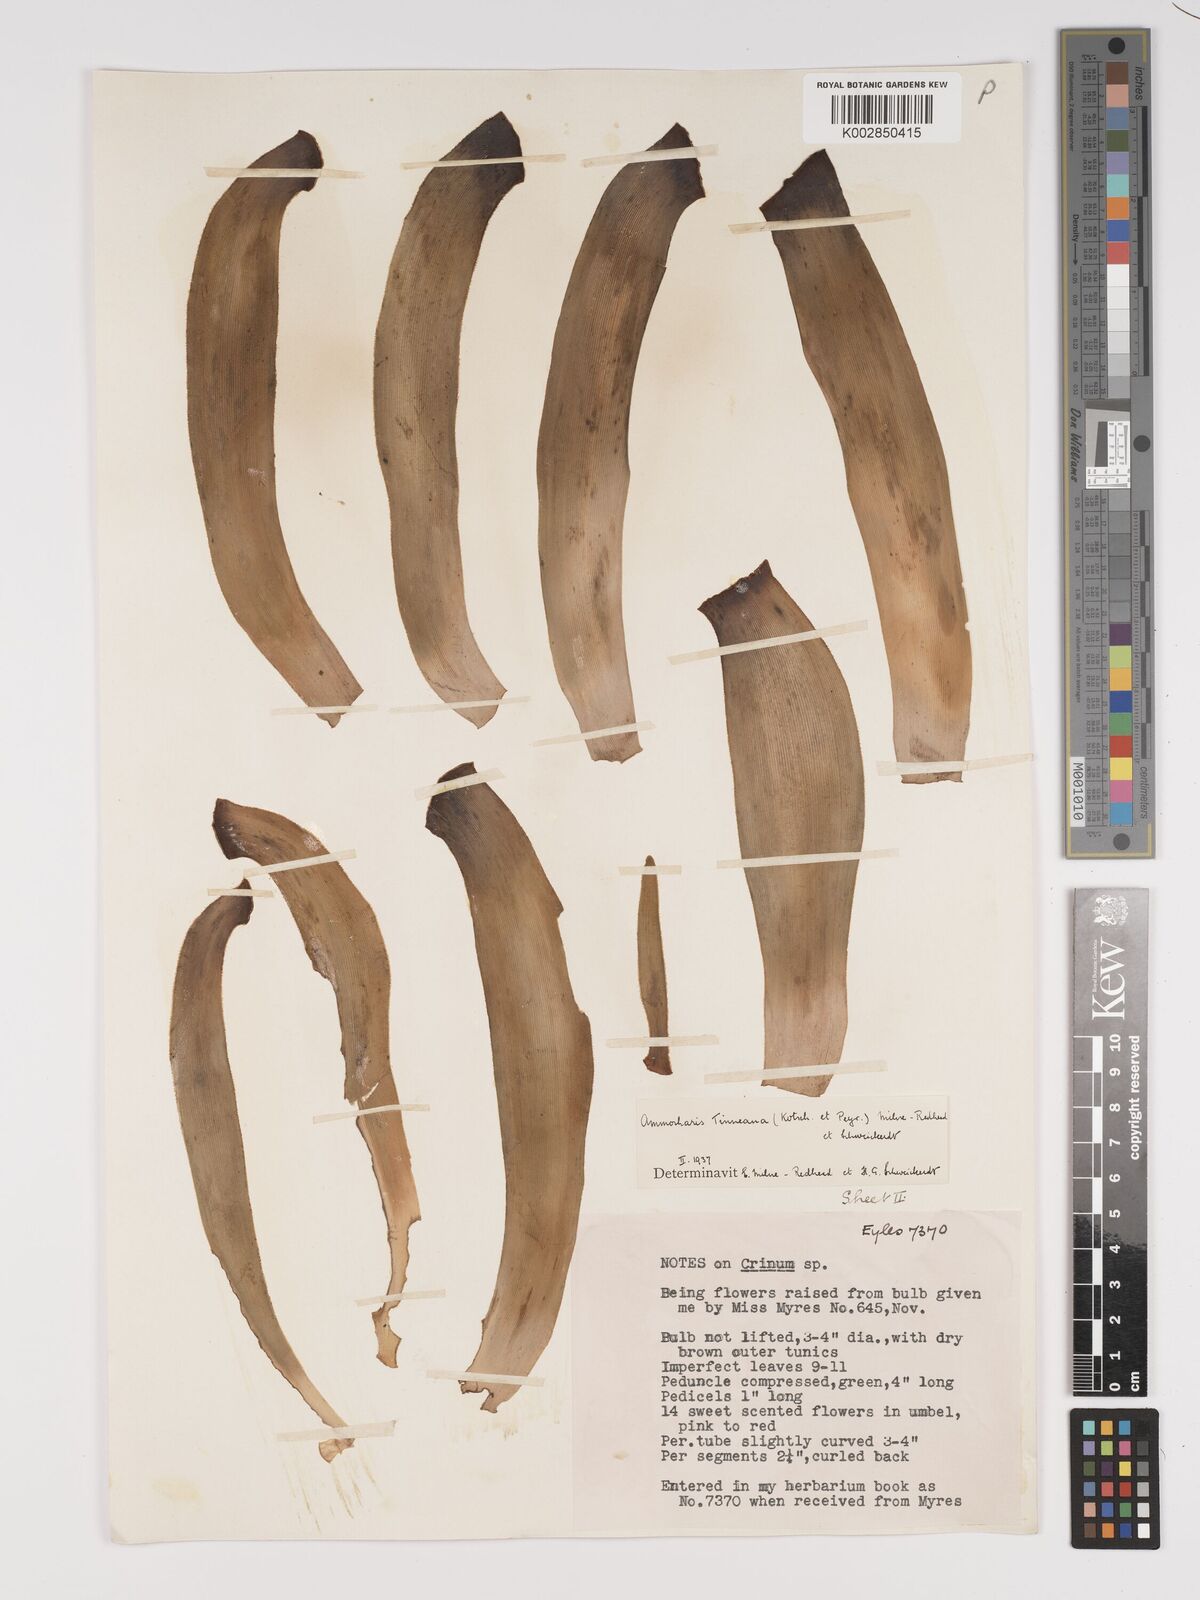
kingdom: Plantae
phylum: Tracheophyta
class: Liliopsida
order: Asparagales
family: Amaryllidaceae
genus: Ammocharis
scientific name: Ammocharis tinneana
